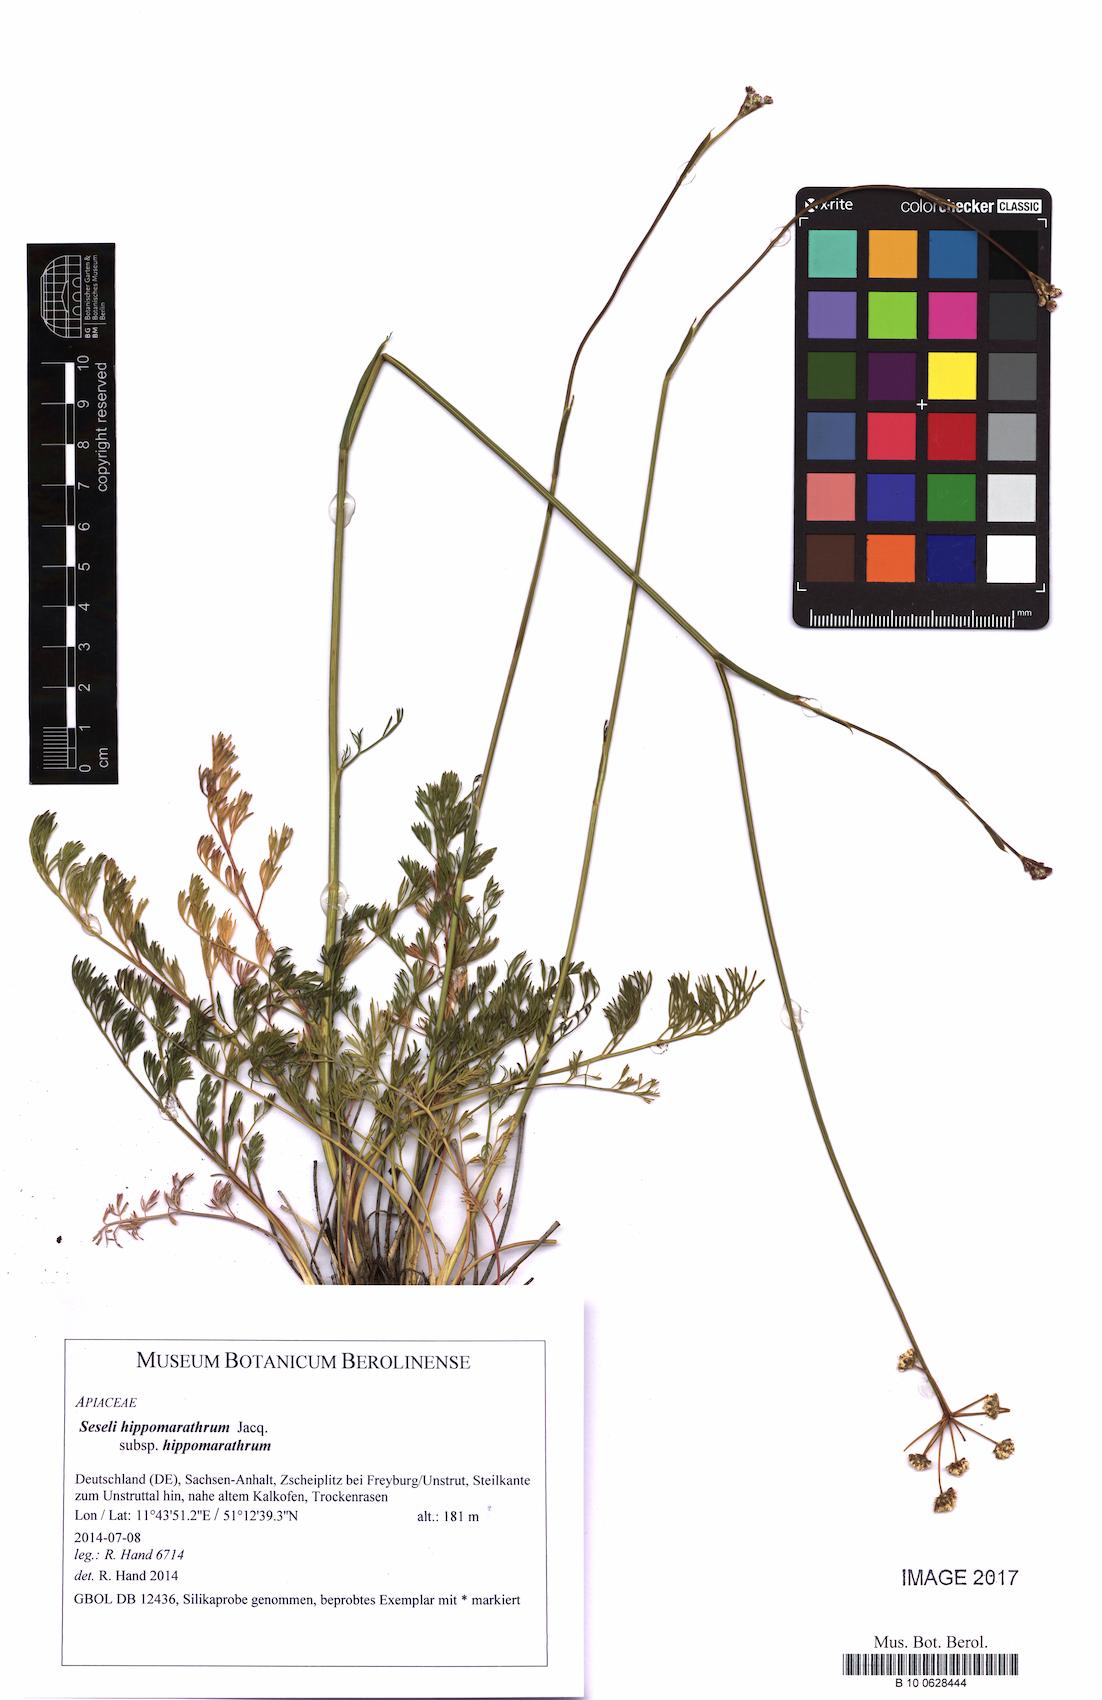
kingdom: Plantae
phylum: Tracheophyta
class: Magnoliopsida
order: Apiales
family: Apiaceae
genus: Hippomarathrum
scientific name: Hippomarathrum
